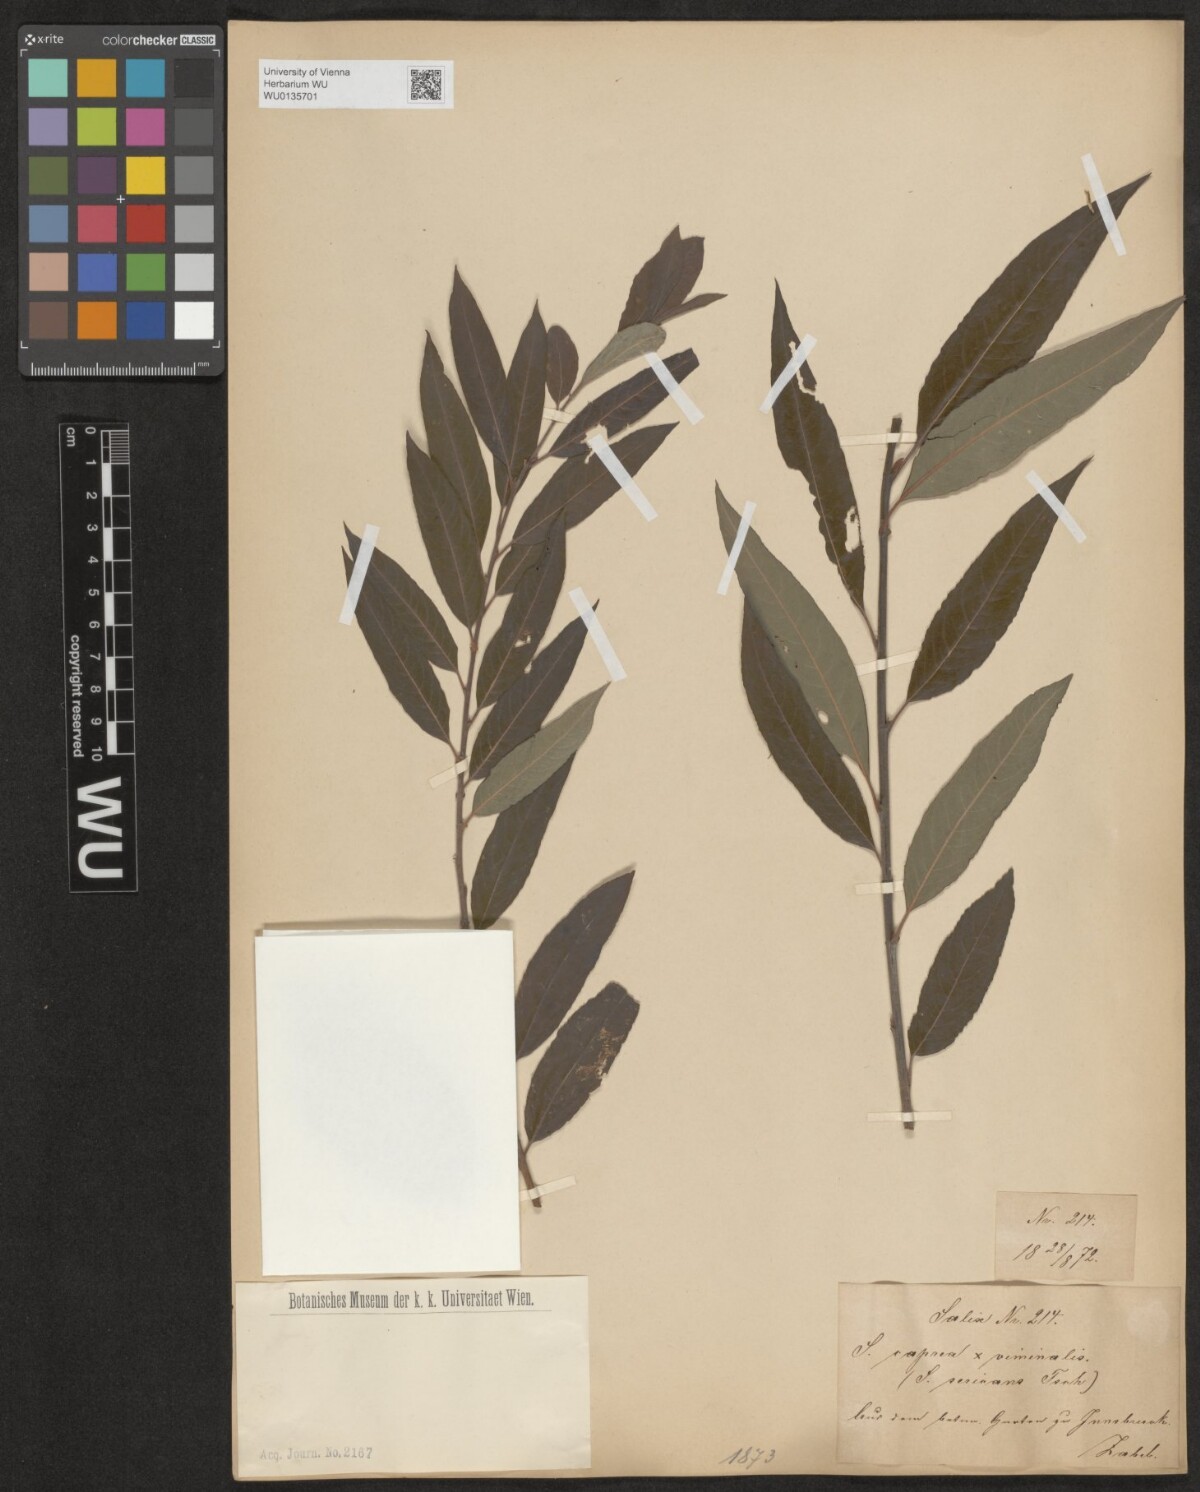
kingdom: Plantae
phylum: Tracheophyta
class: Magnoliopsida
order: Malpighiales
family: Salicaceae
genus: Salix
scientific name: Salix
